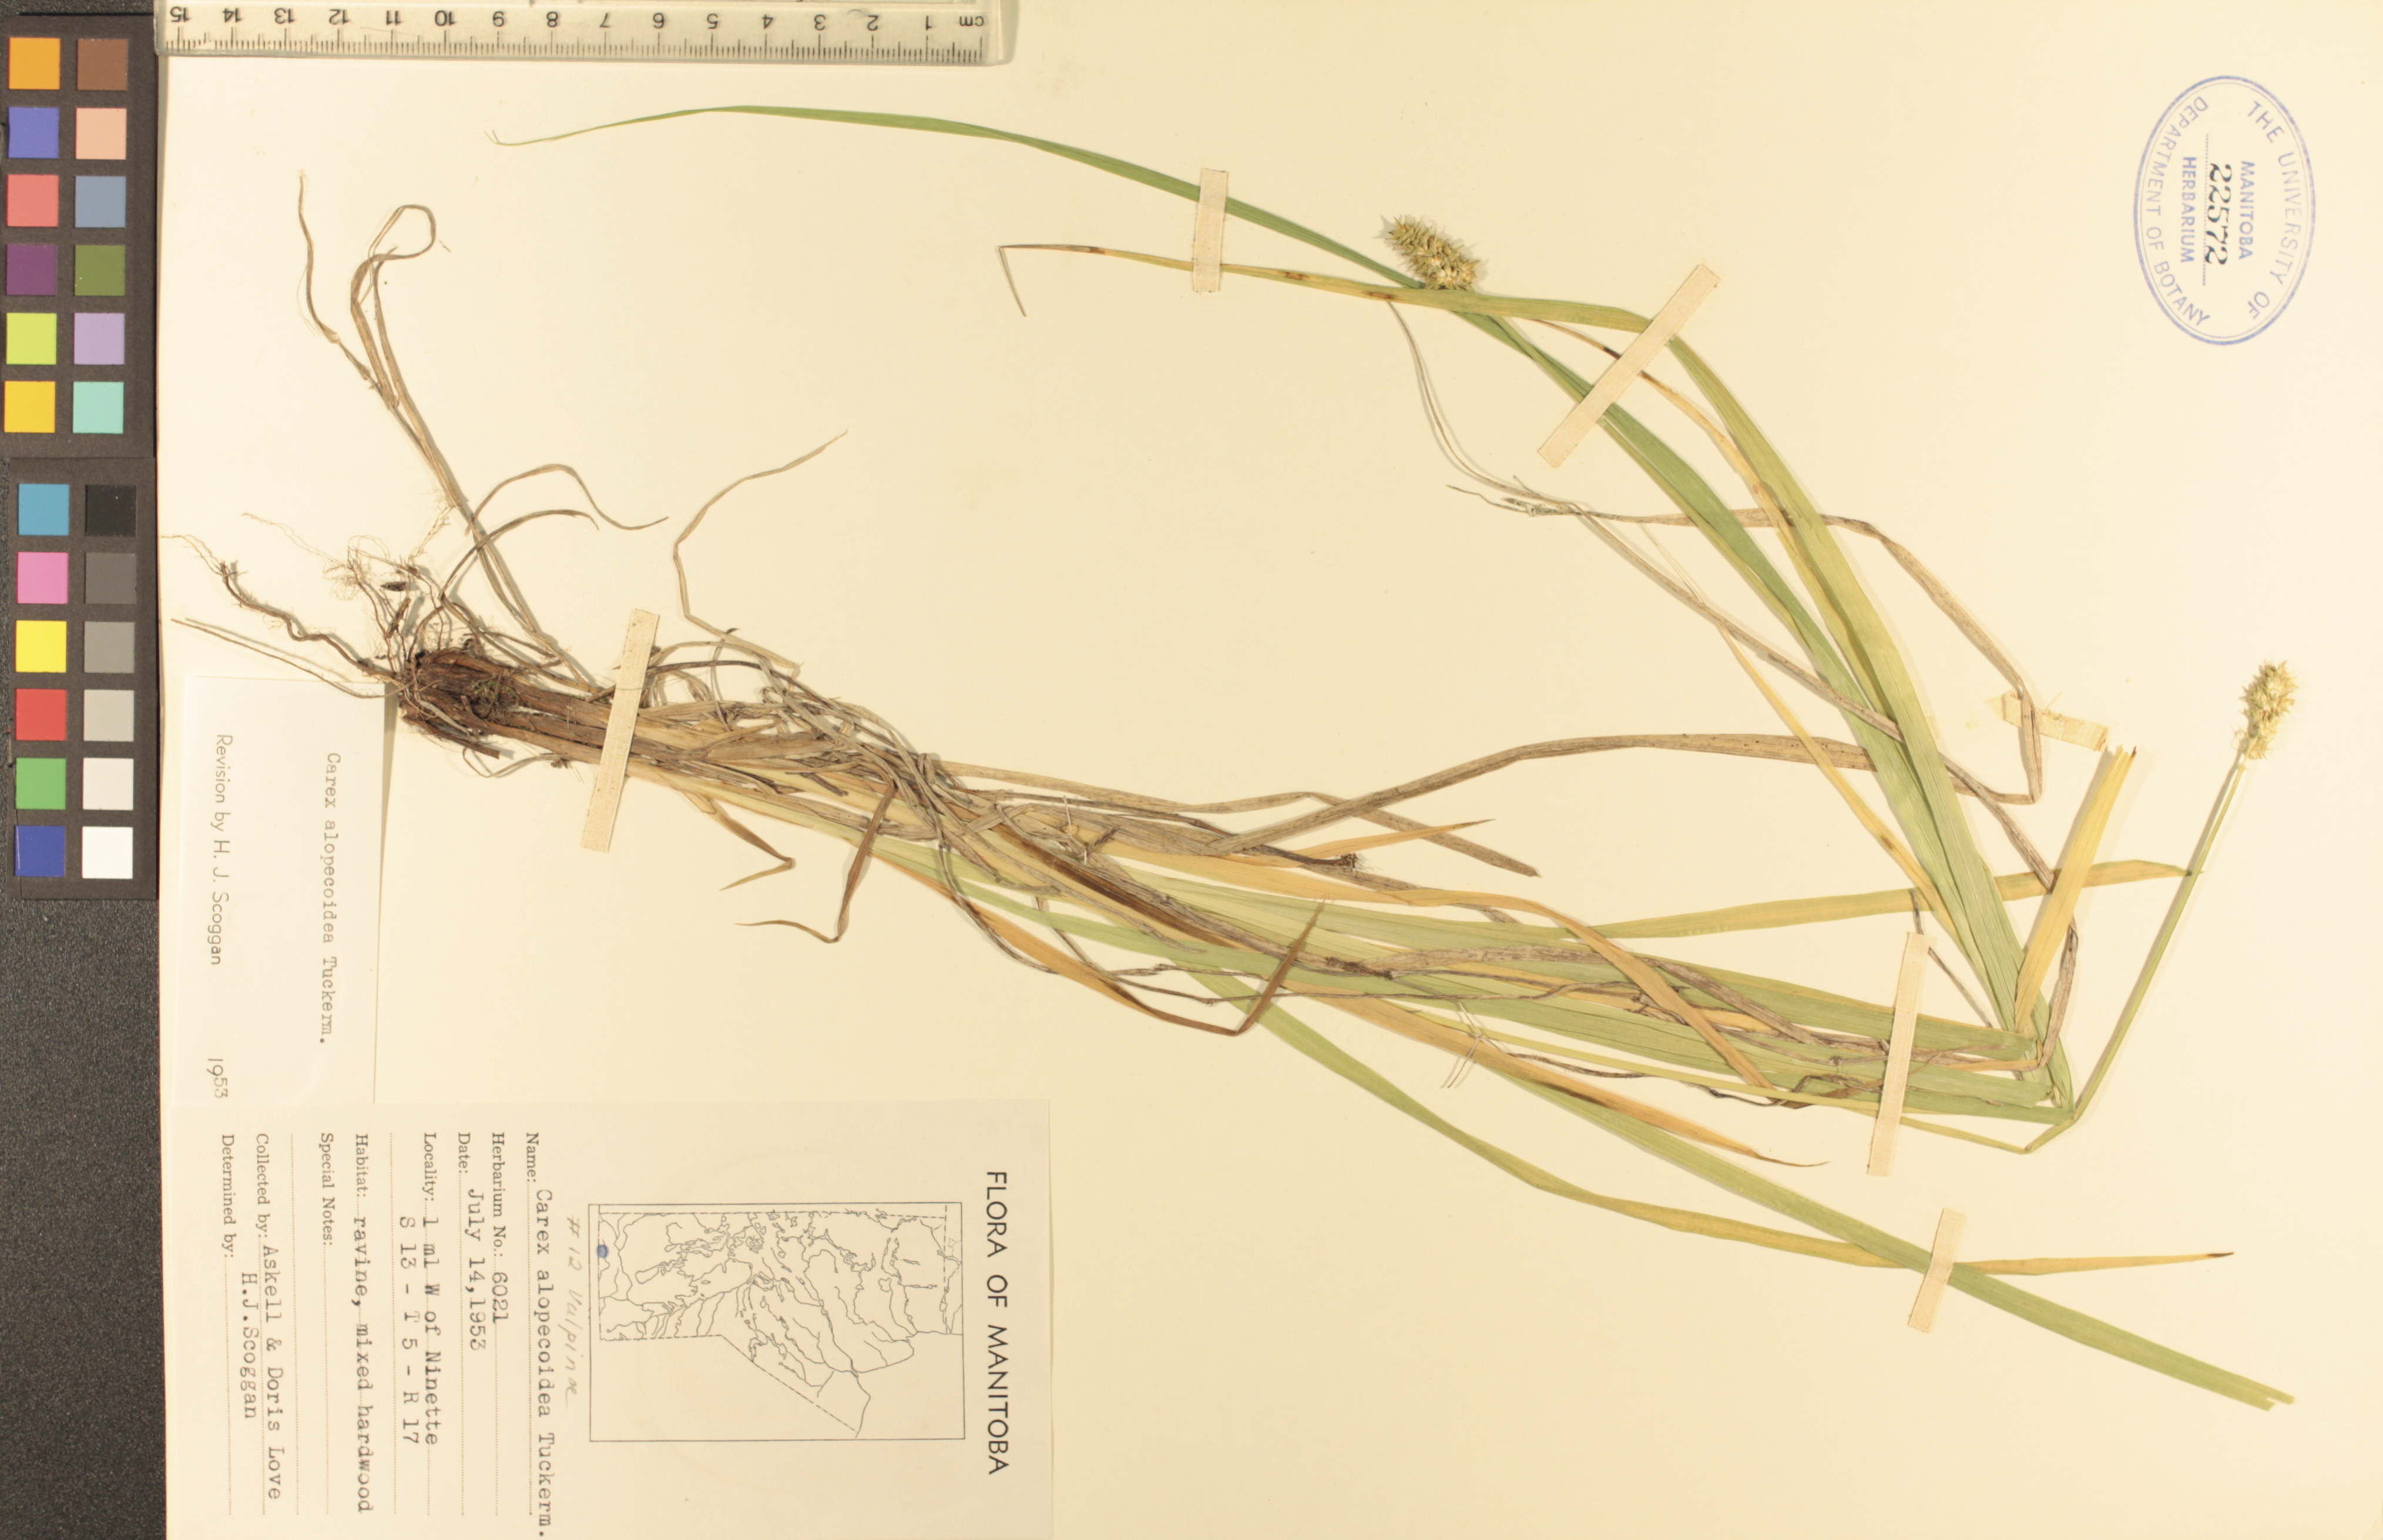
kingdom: Plantae
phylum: Tracheophyta
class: Liliopsida
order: Poales
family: Cyperaceae
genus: Carex
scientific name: Carex alopecoidea
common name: Brown-headed fox sedge
